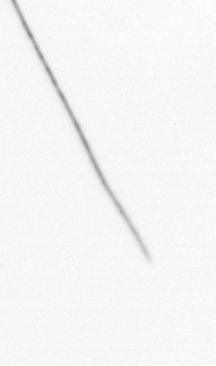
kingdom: Chromista
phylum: Ochrophyta
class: Bacillariophyceae
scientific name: Bacillariophyceae
